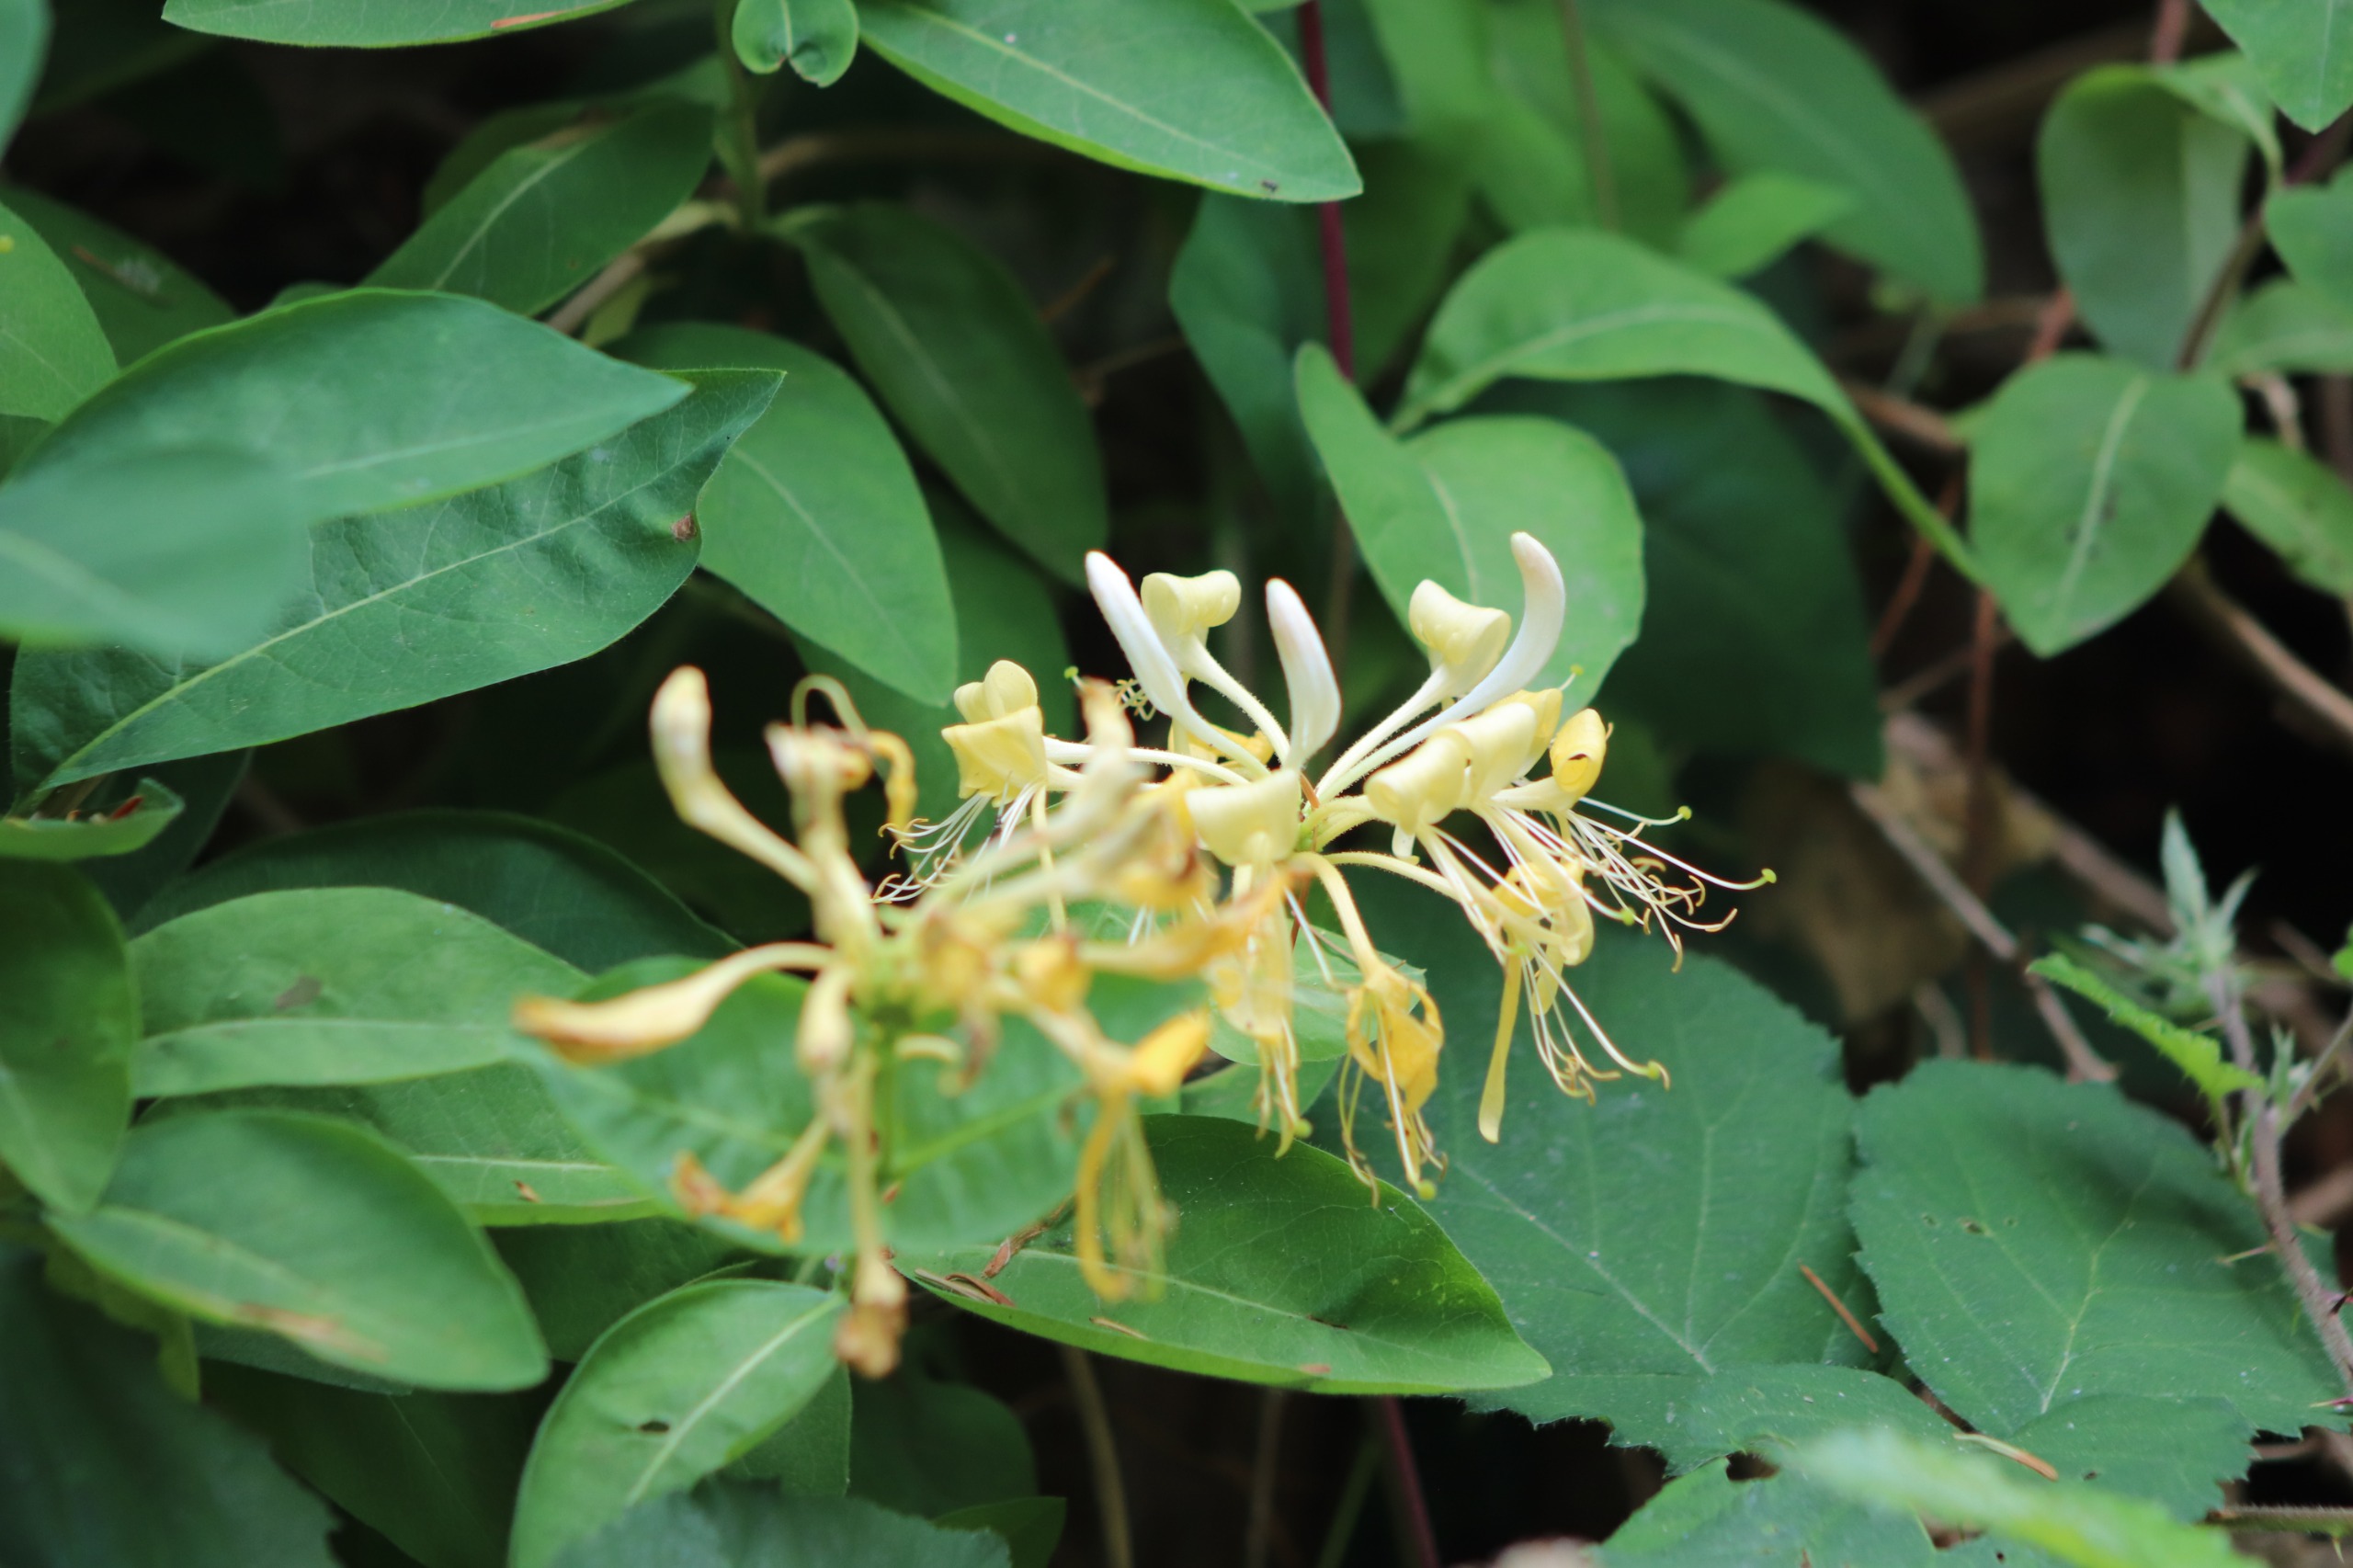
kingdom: Plantae
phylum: Tracheophyta
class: Magnoliopsida
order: Dipsacales
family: Caprifoliaceae
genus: Lonicera
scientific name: Lonicera periclymenum
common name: Almindelig gedeblad
